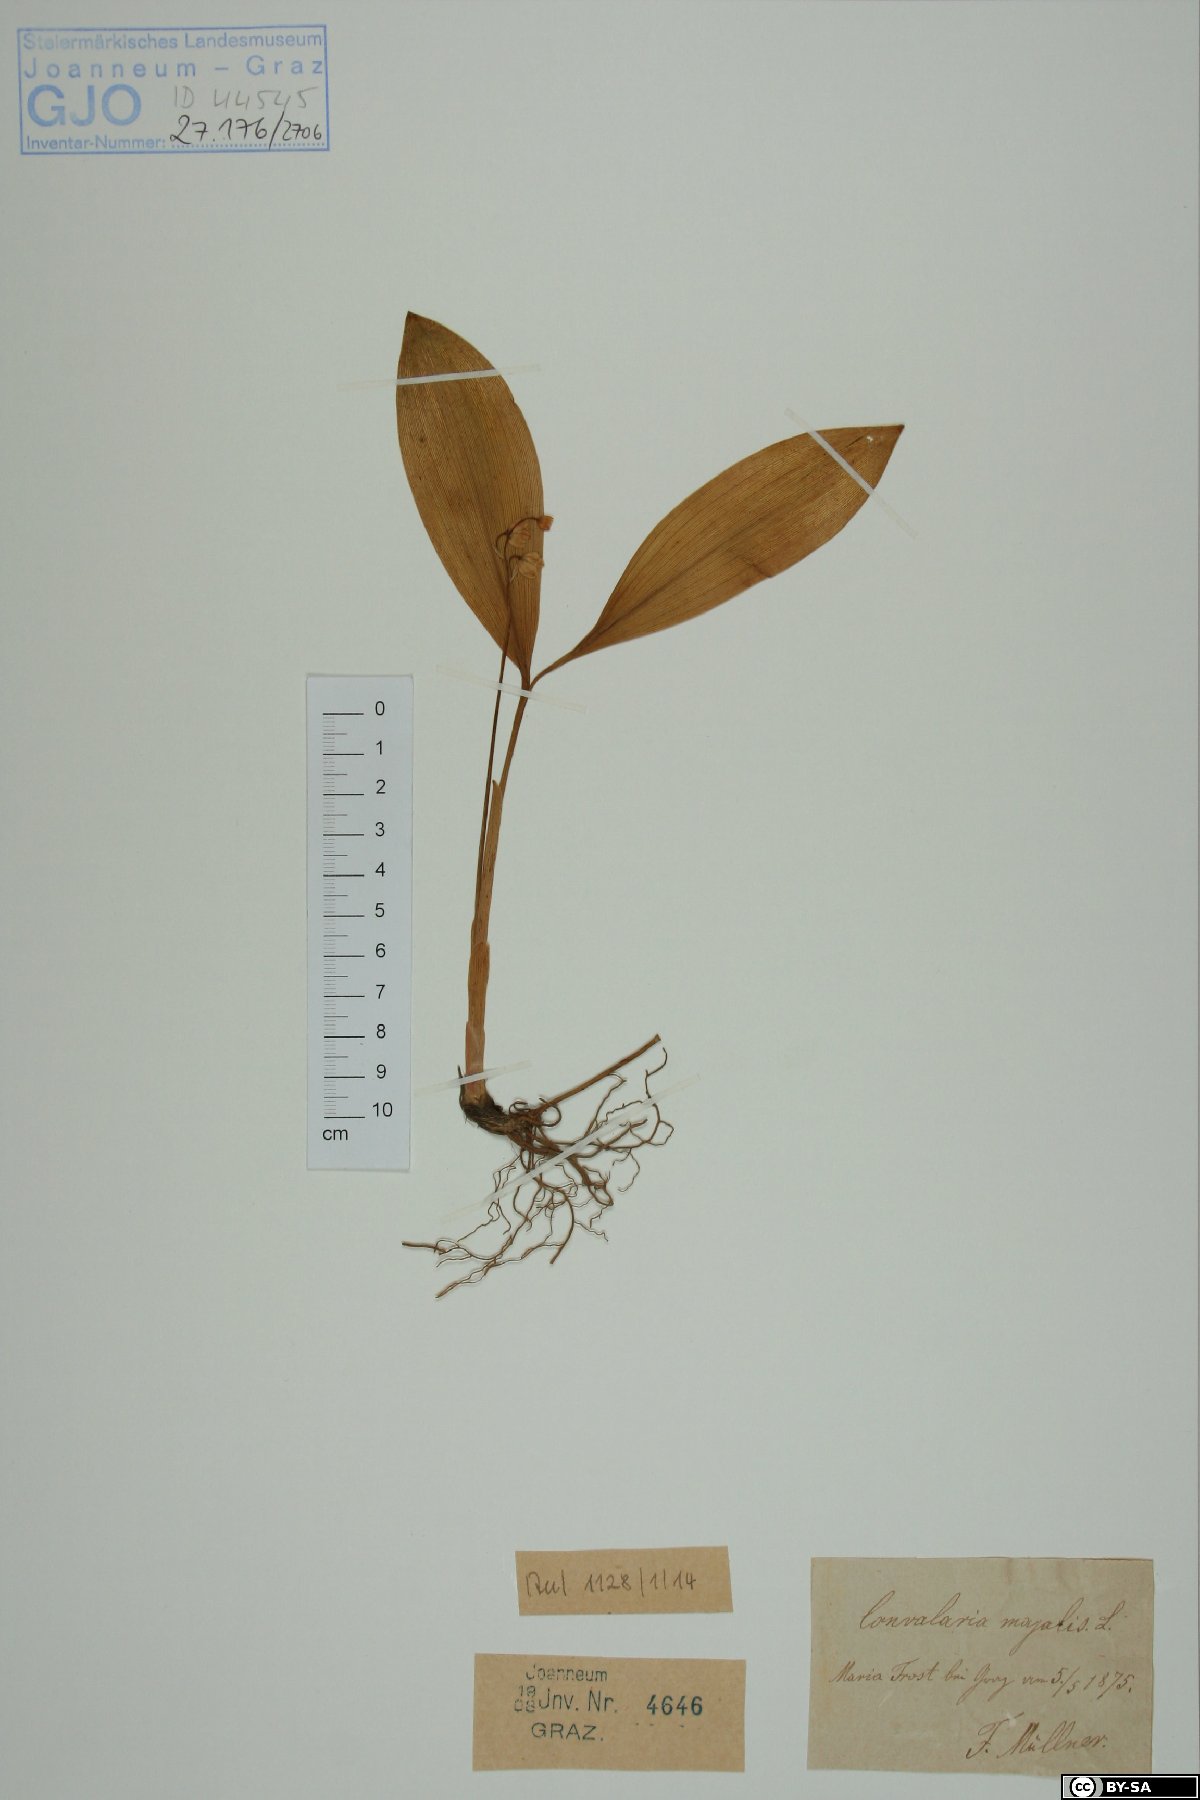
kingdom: Plantae
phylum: Tracheophyta
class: Liliopsida
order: Asparagales
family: Asparagaceae
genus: Convallaria
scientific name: Convallaria majalis
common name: Lily-of-the-valley
